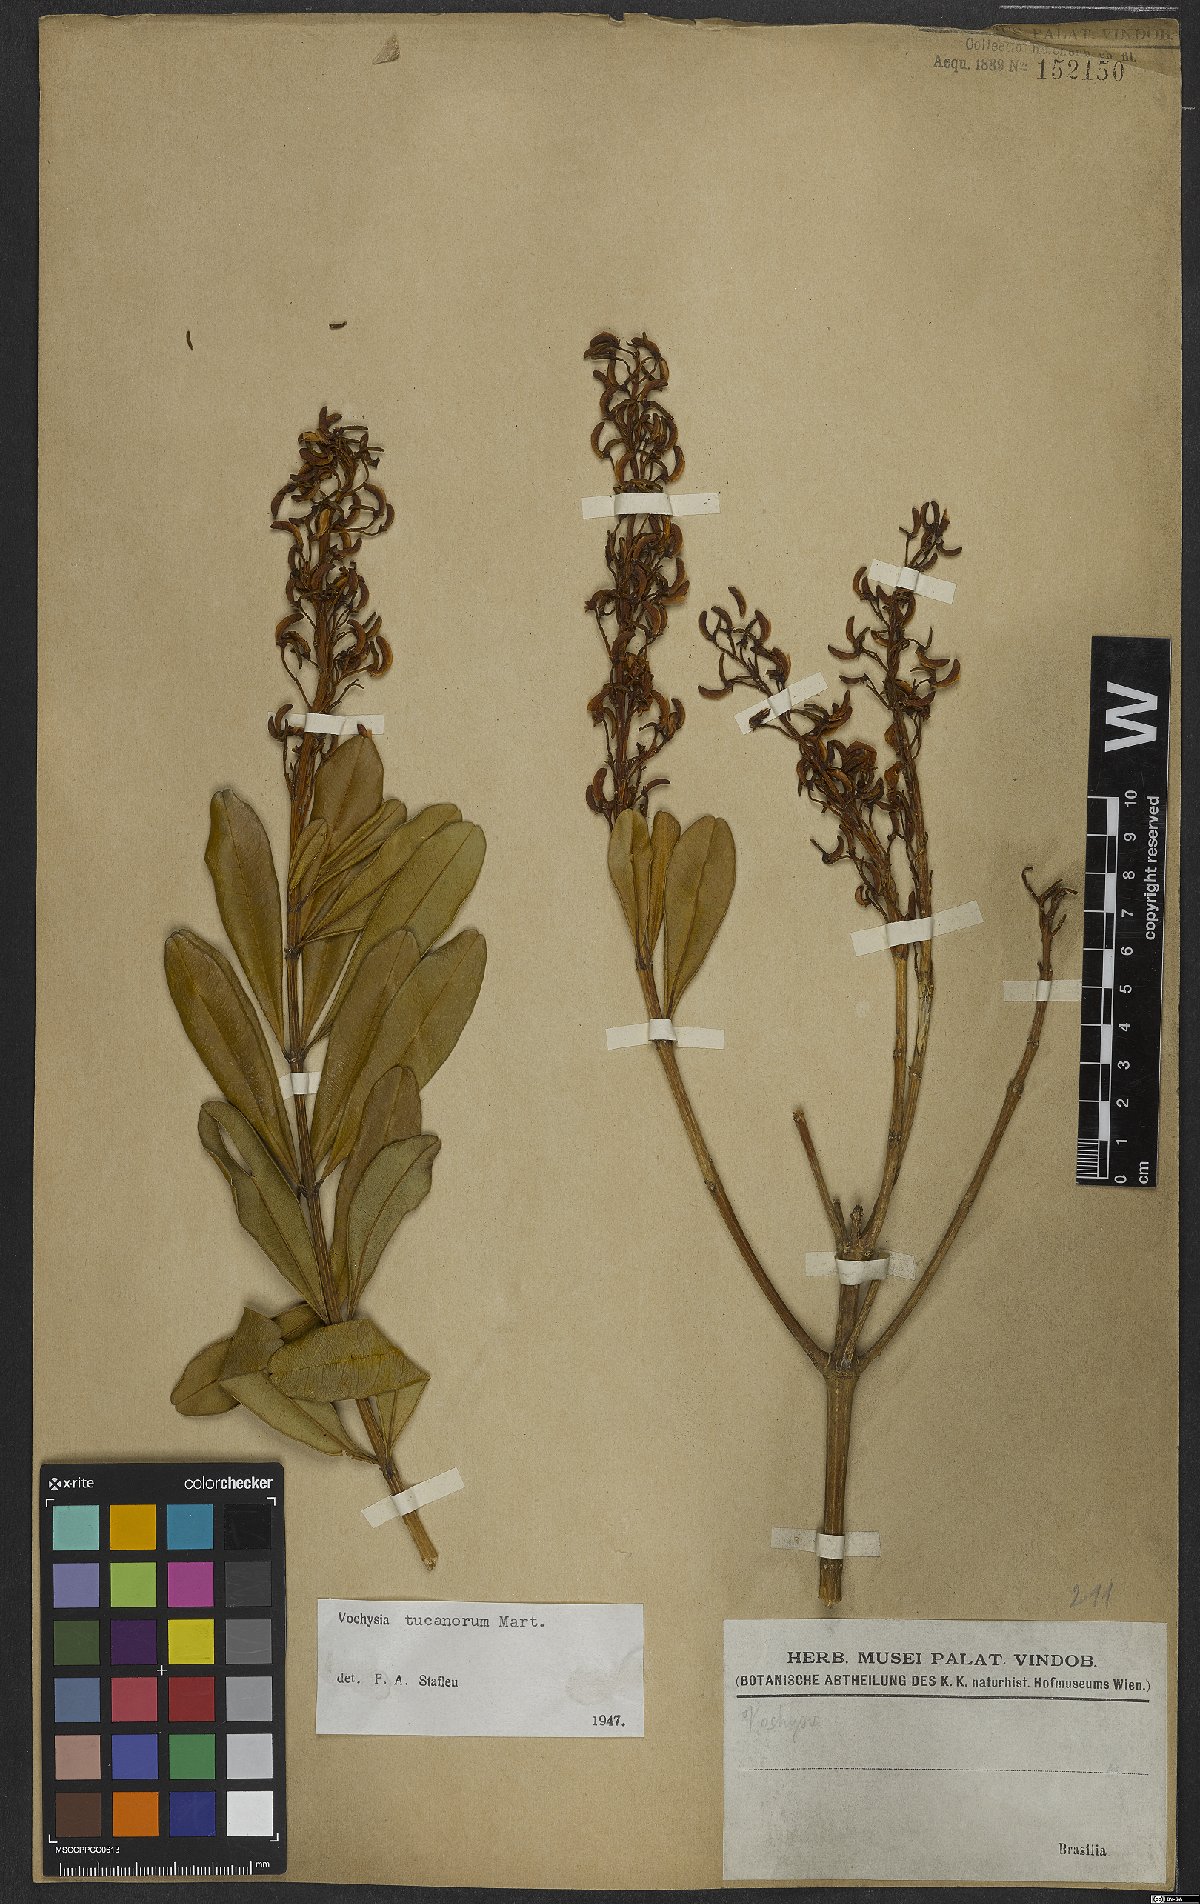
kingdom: Plantae
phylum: Tracheophyta
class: Magnoliopsida
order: Myrtales
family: Vochysiaceae
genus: Vochysia
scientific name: Vochysia tucanorum
